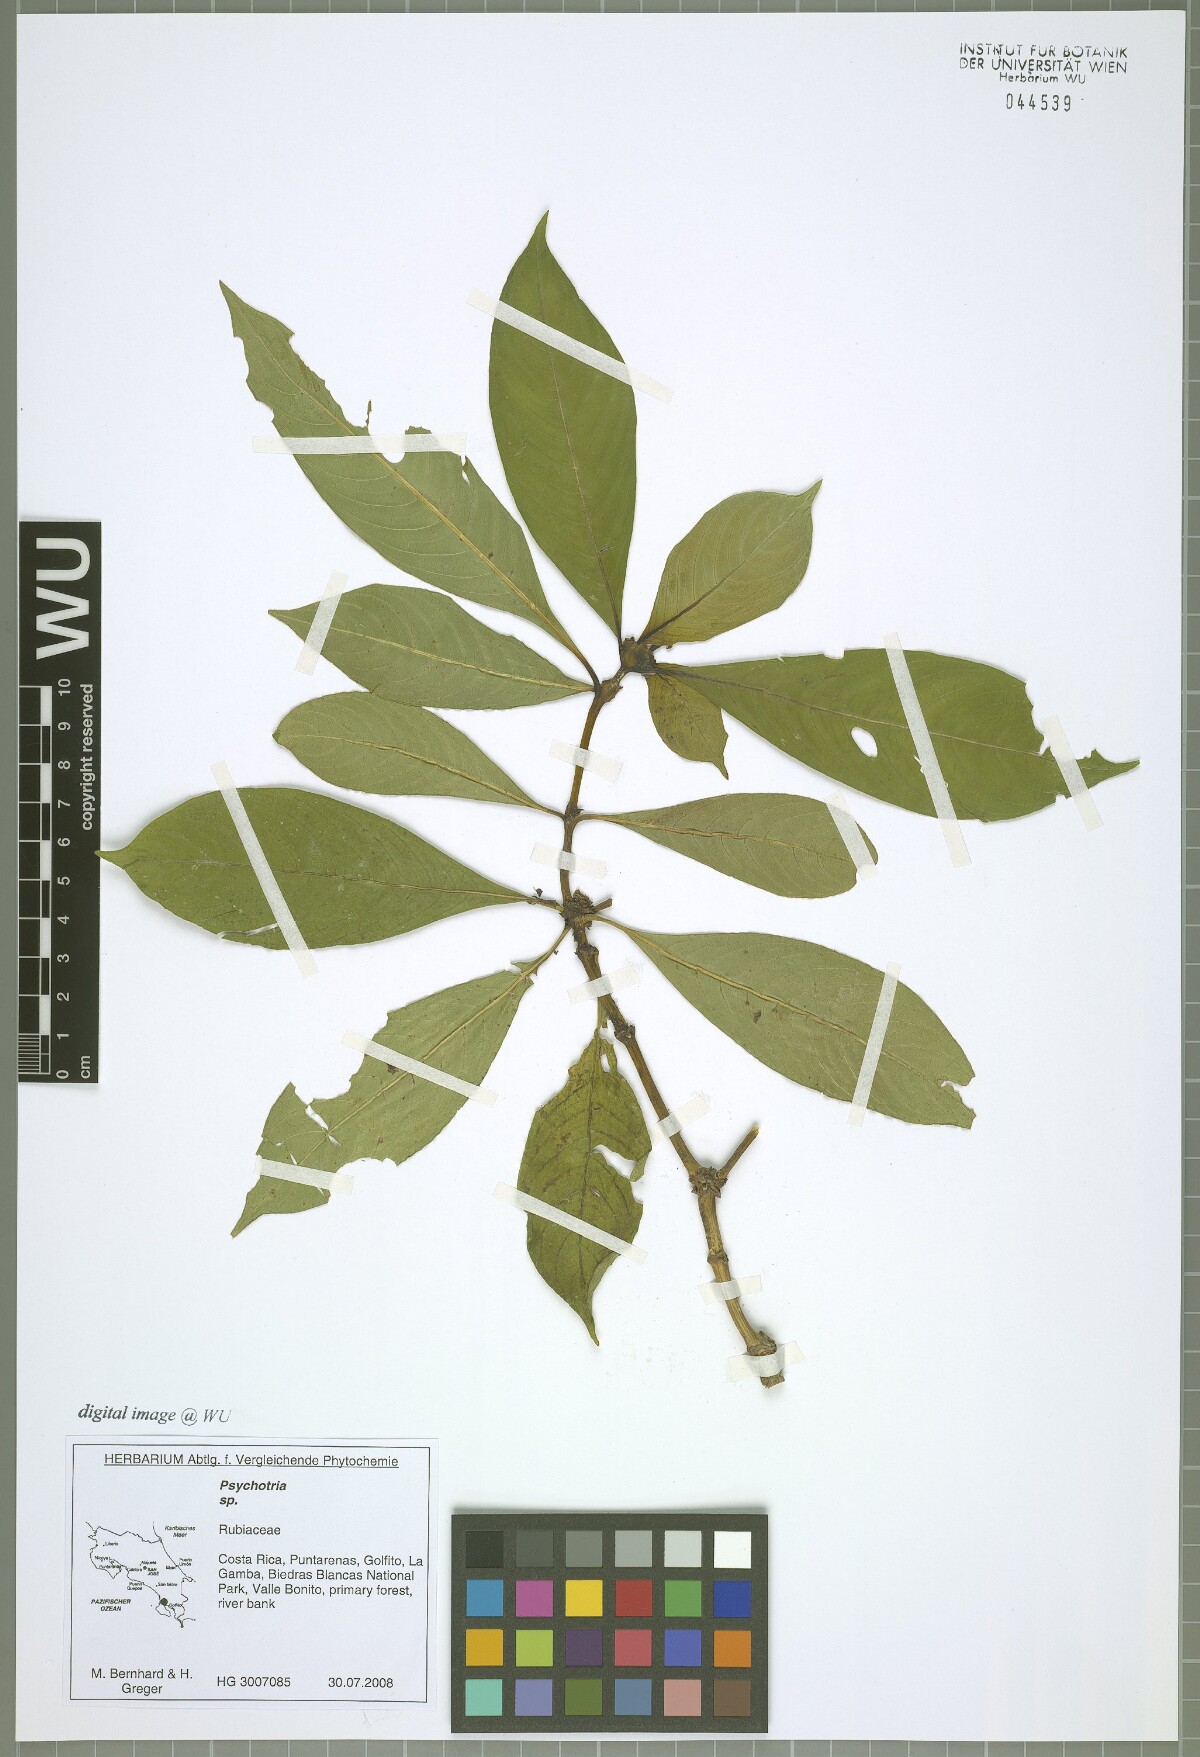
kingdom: Plantae
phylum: Tracheophyta
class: Magnoliopsida
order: Gentianales
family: Rubiaceae
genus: Palicourea
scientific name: Palicourea pseudaxillaris
